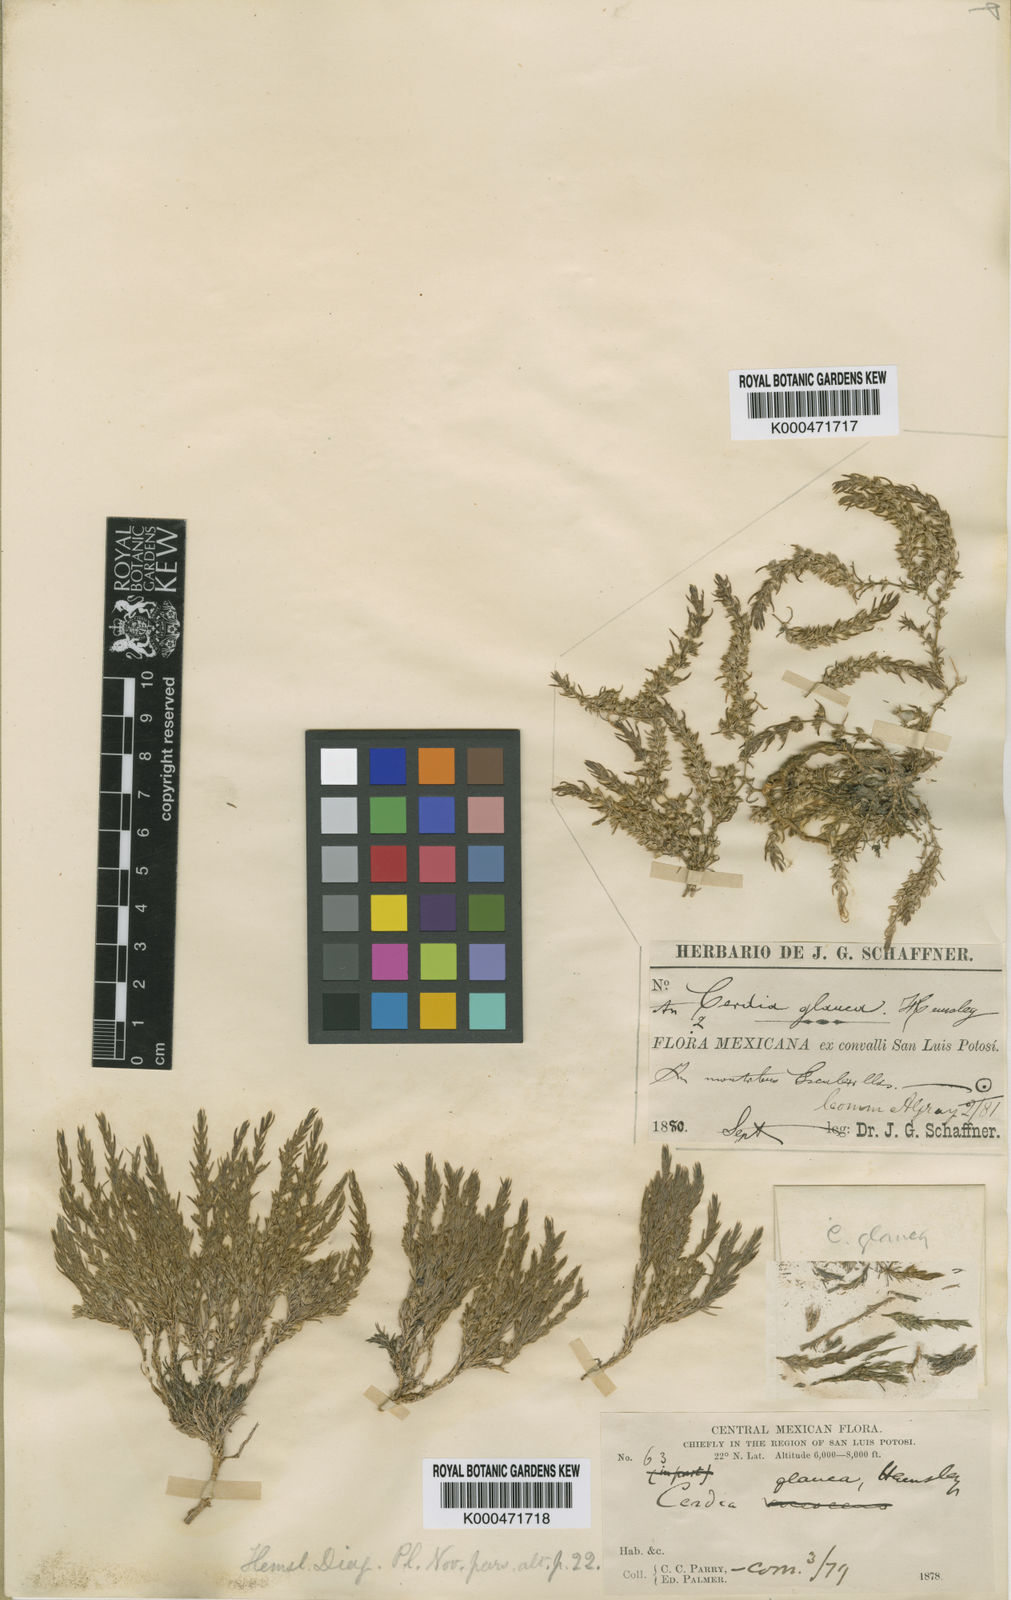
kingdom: Plantae
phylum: Tracheophyta
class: Magnoliopsida
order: Caryophyllales
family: Caryophyllaceae
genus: Cerdia
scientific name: Cerdia virescens
